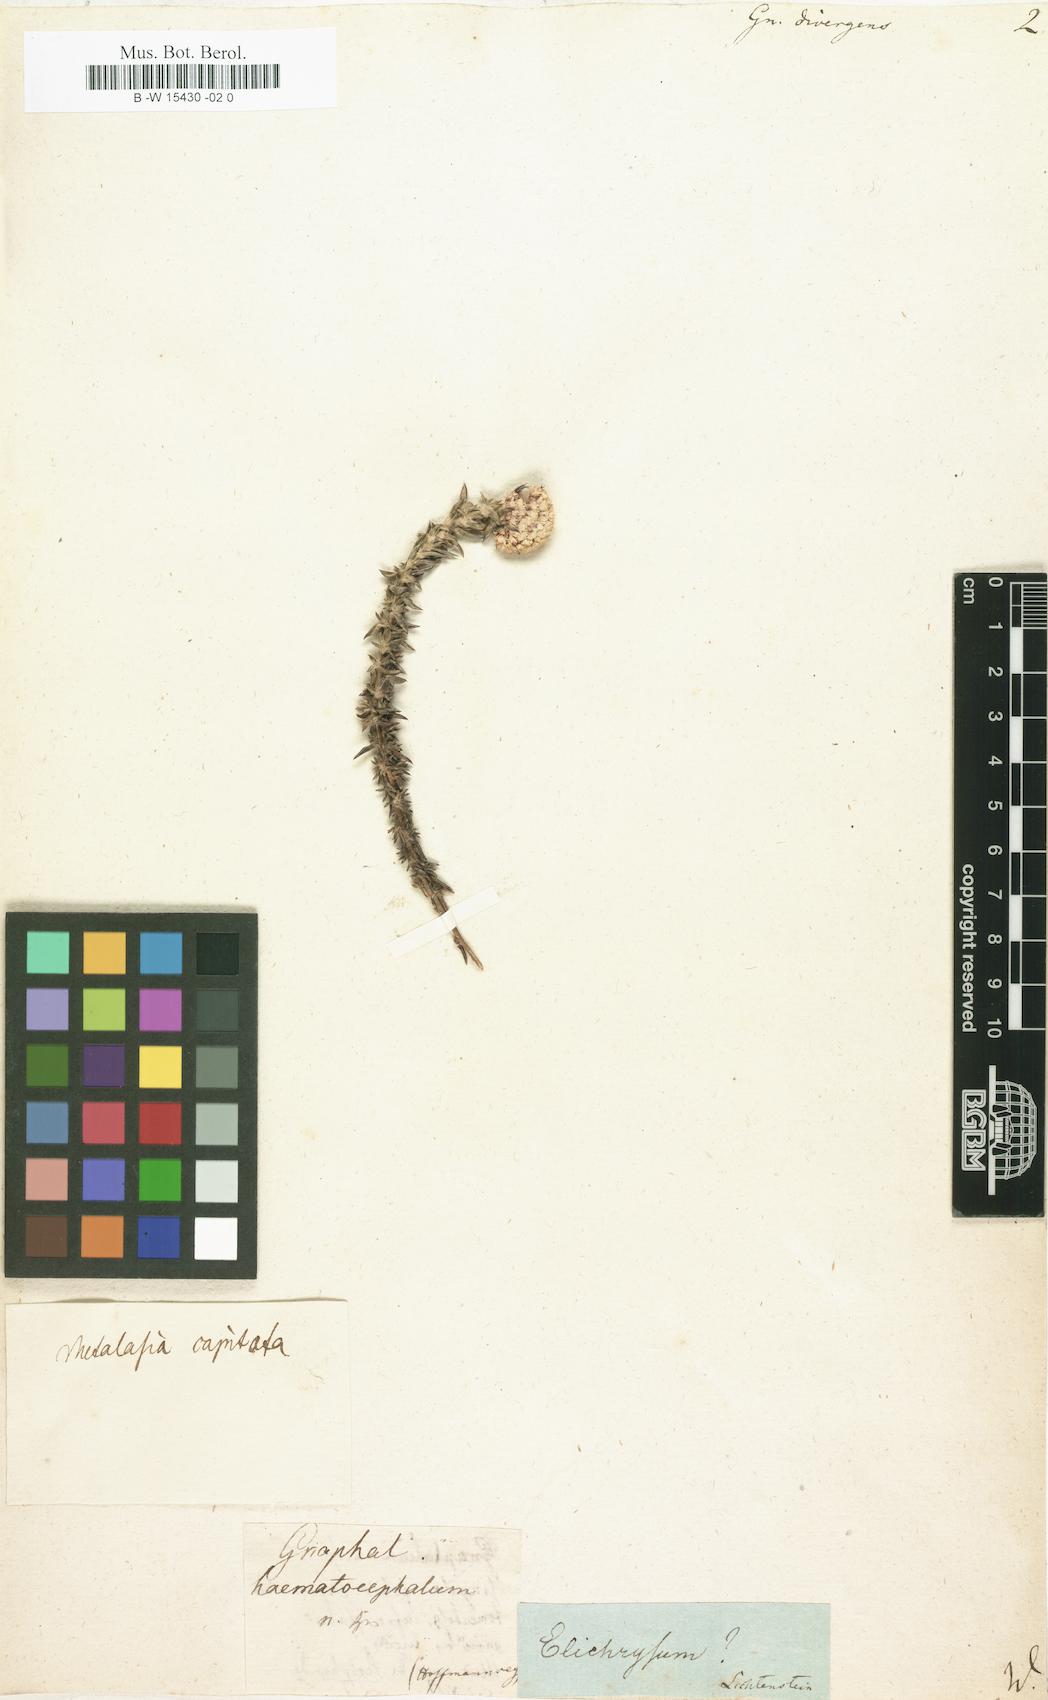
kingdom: Plantae
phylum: Tracheophyta
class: Magnoliopsida
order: Asterales
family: Asteraceae
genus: Metalasia
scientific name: Metalasia divergens
